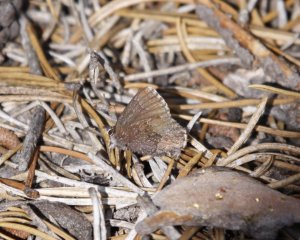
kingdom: Animalia
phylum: Arthropoda
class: Insecta
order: Lepidoptera
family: Lycaenidae
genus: Callophrys
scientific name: Callophrys polios
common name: Hoary Elfin
